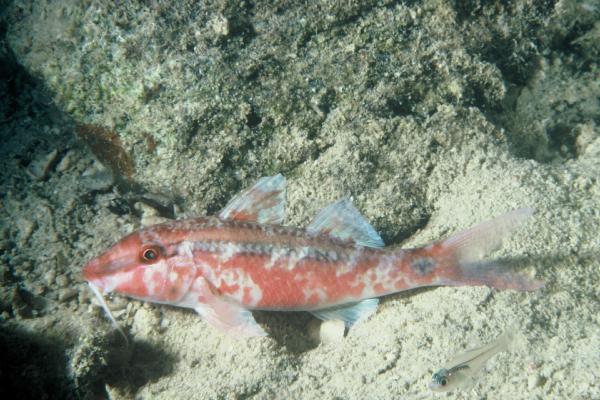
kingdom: Animalia
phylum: Chordata
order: Perciformes
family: Mullidae
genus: Parupeneus
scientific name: Parupeneus barberinus
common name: Dash-and-dot goatfish
